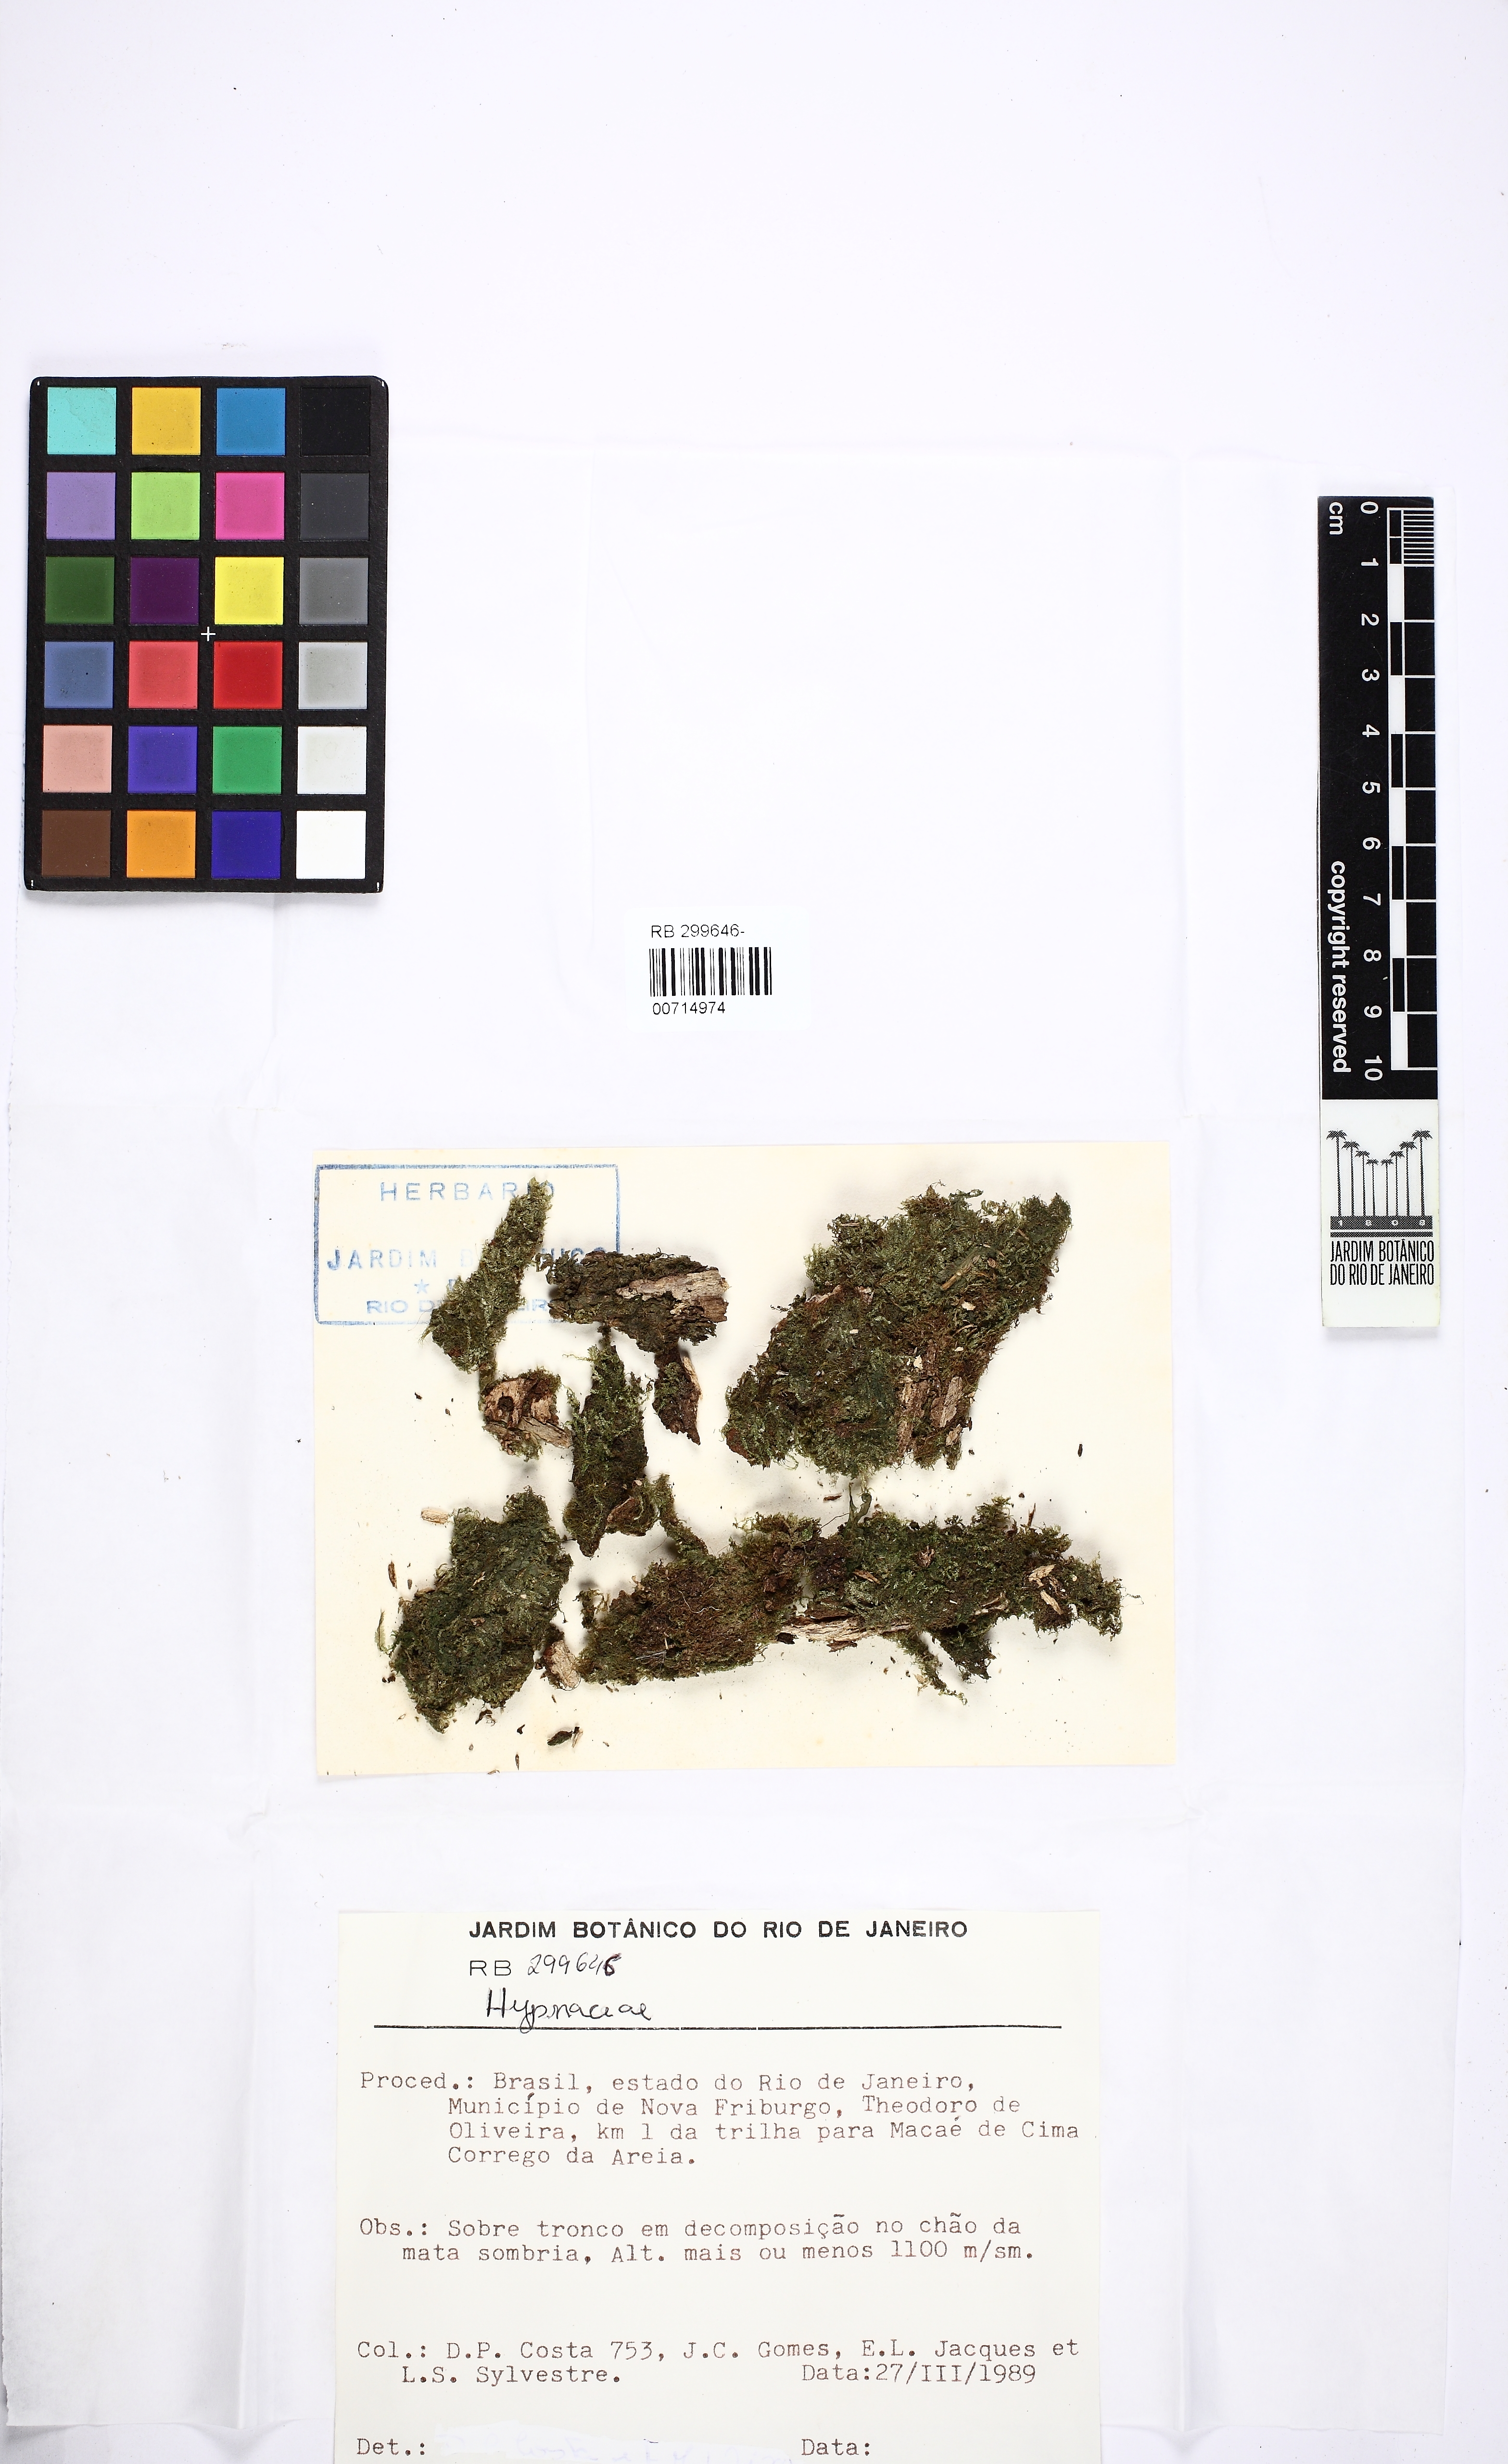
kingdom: Plantae
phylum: Bryophyta
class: Bryopsida
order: Hypnales
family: Hypnaceae
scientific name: Hypnaceae
